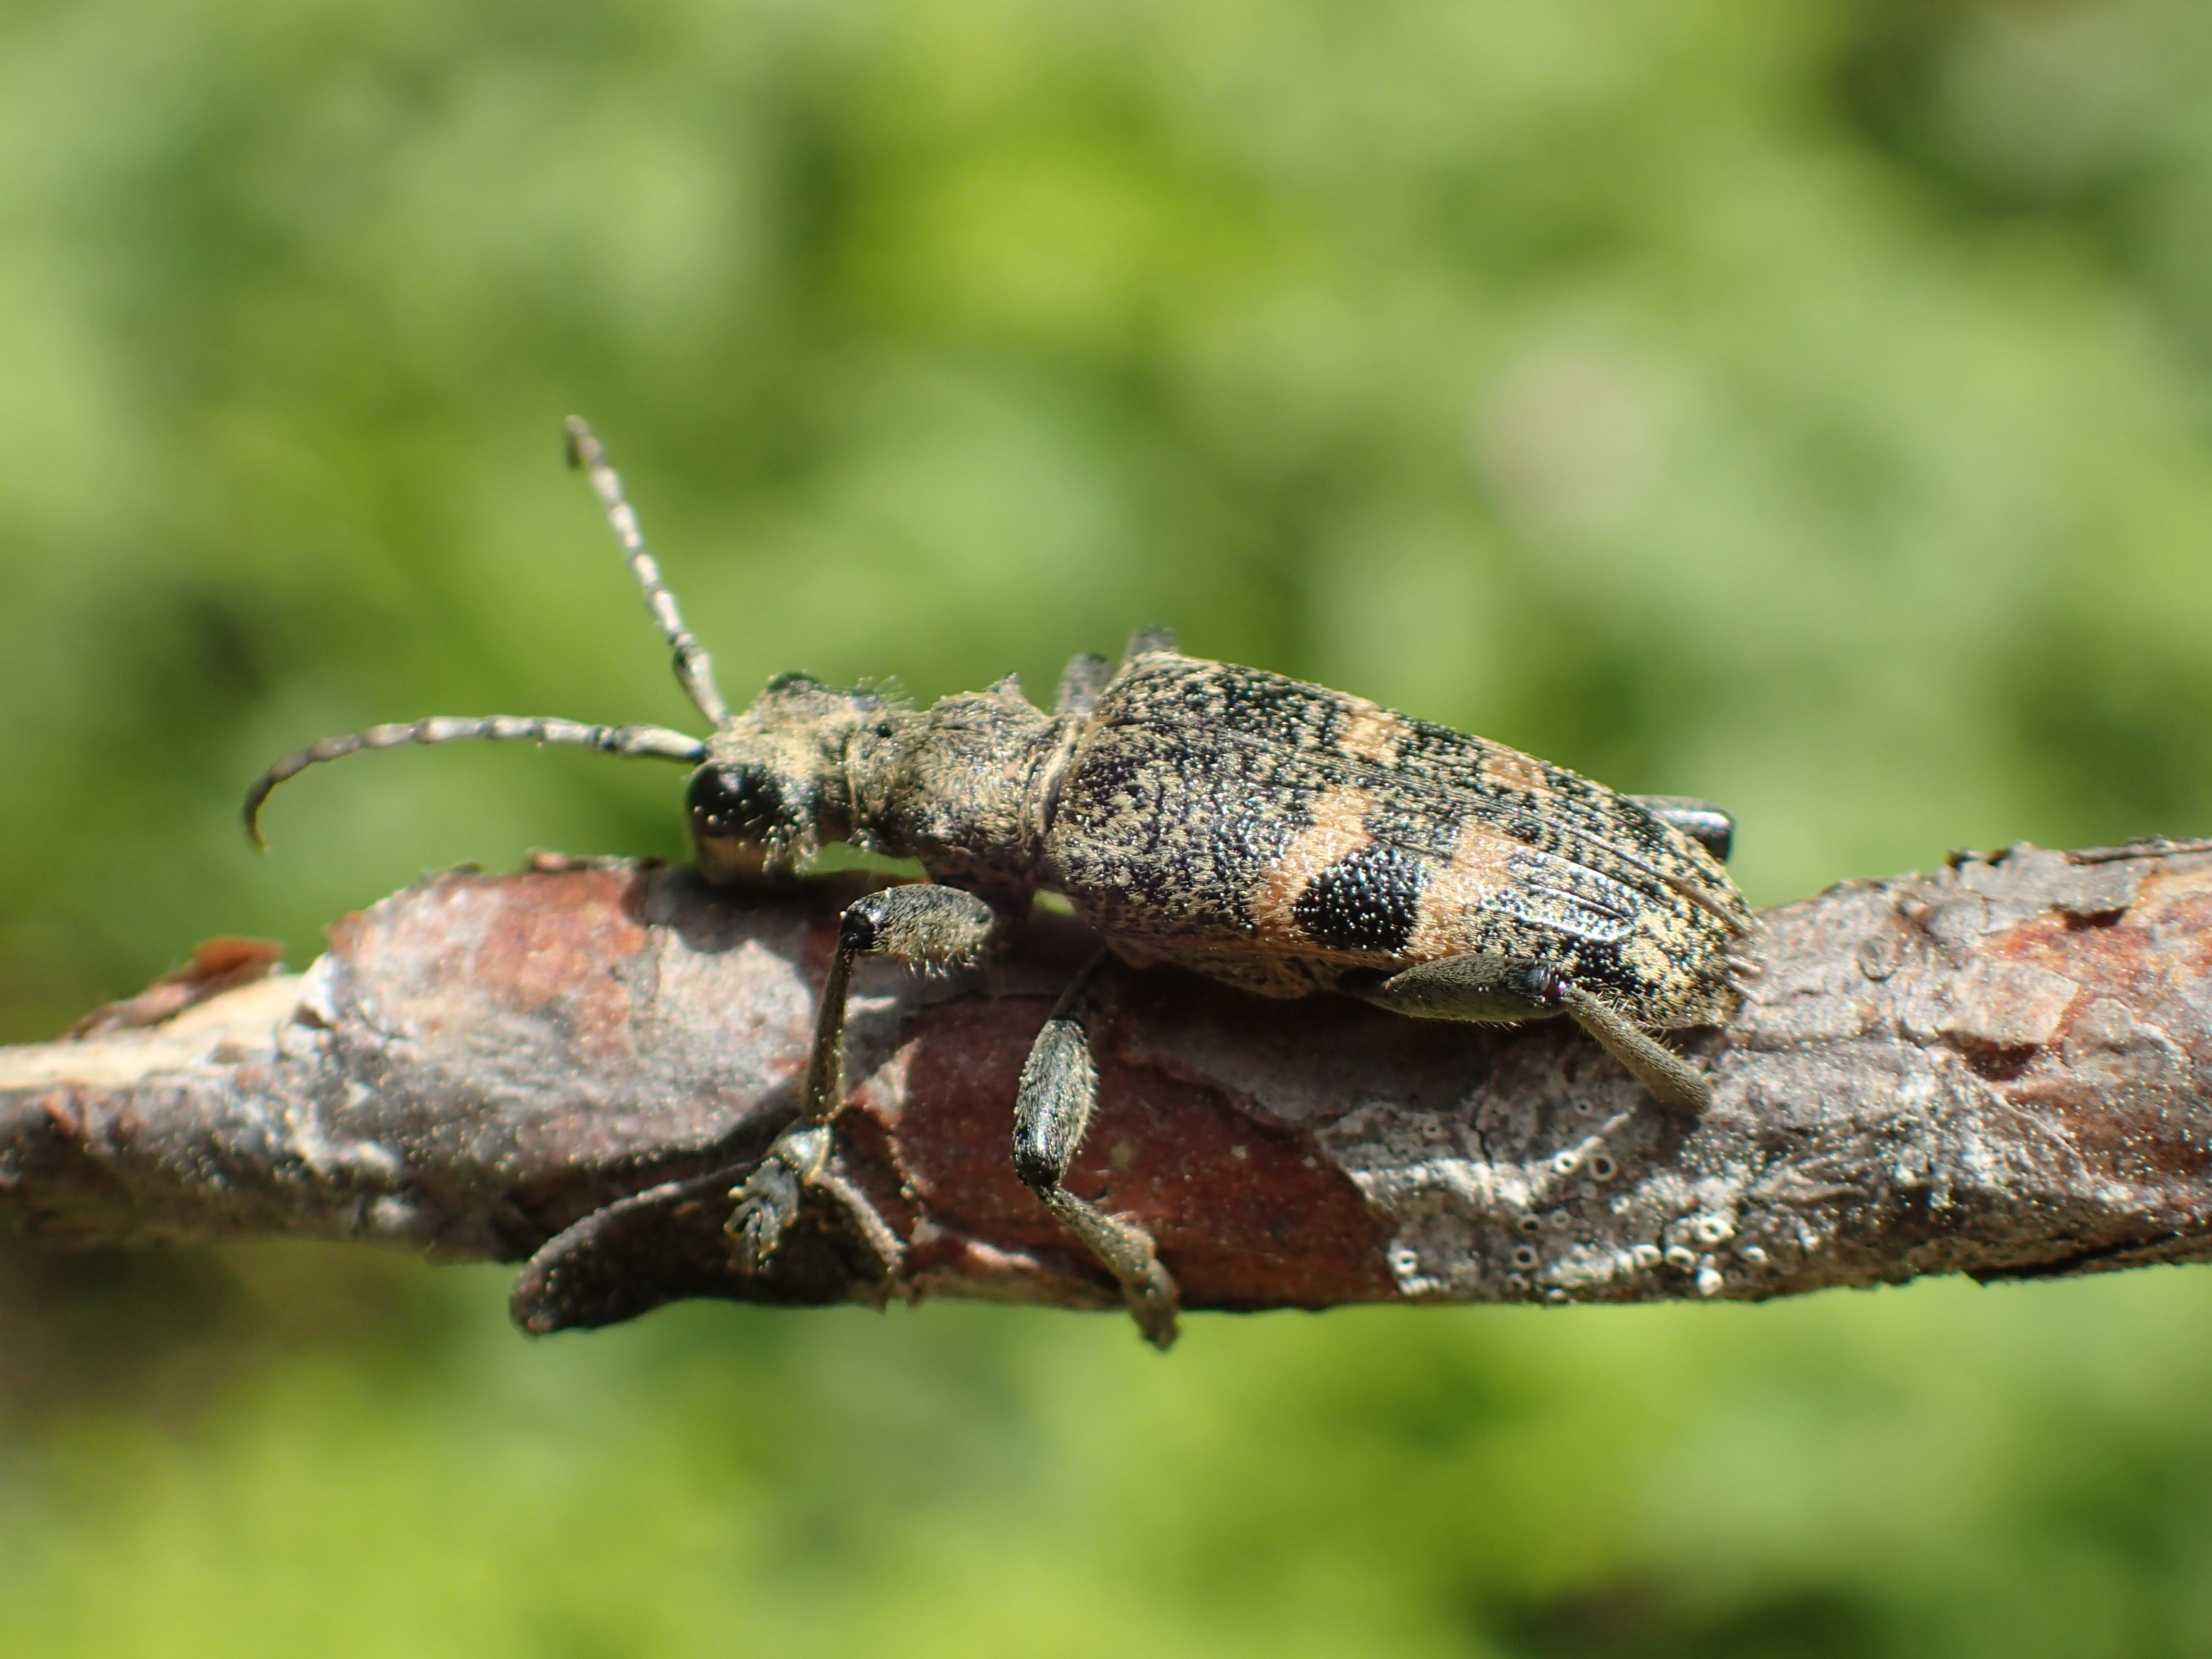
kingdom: Animalia
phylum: Arthropoda
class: Insecta
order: Coleoptera
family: Cerambycidae
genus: Rhagium
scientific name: Rhagium mordax
